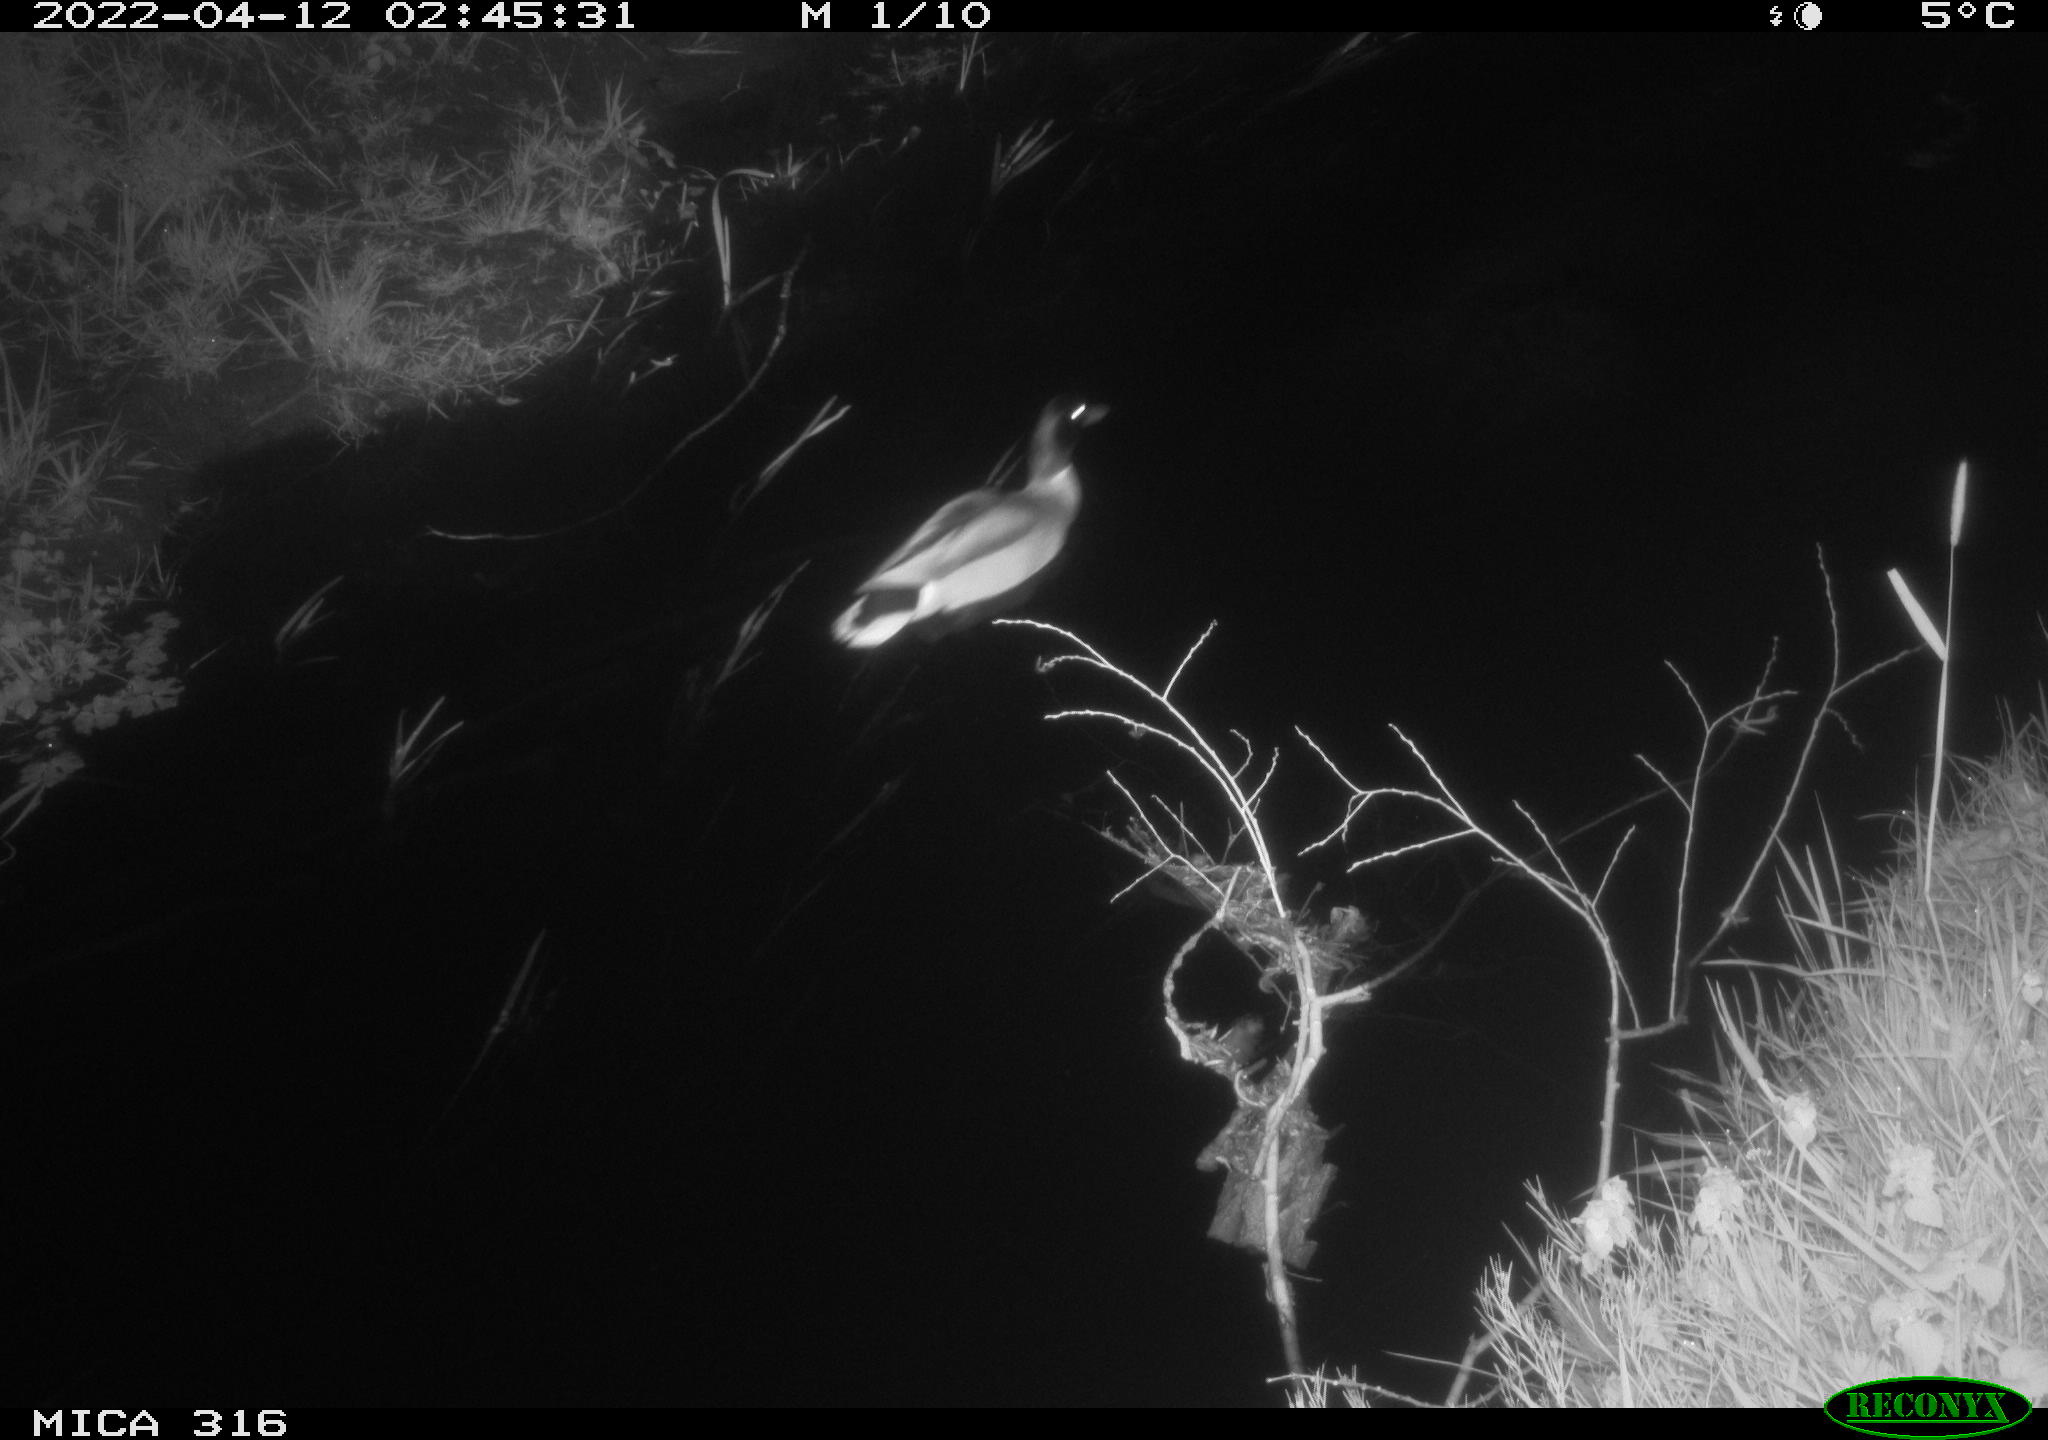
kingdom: Animalia
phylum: Chordata
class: Aves
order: Anseriformes
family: Anatidae
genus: Anas
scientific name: Anas platyrhynchos
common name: Mallard
